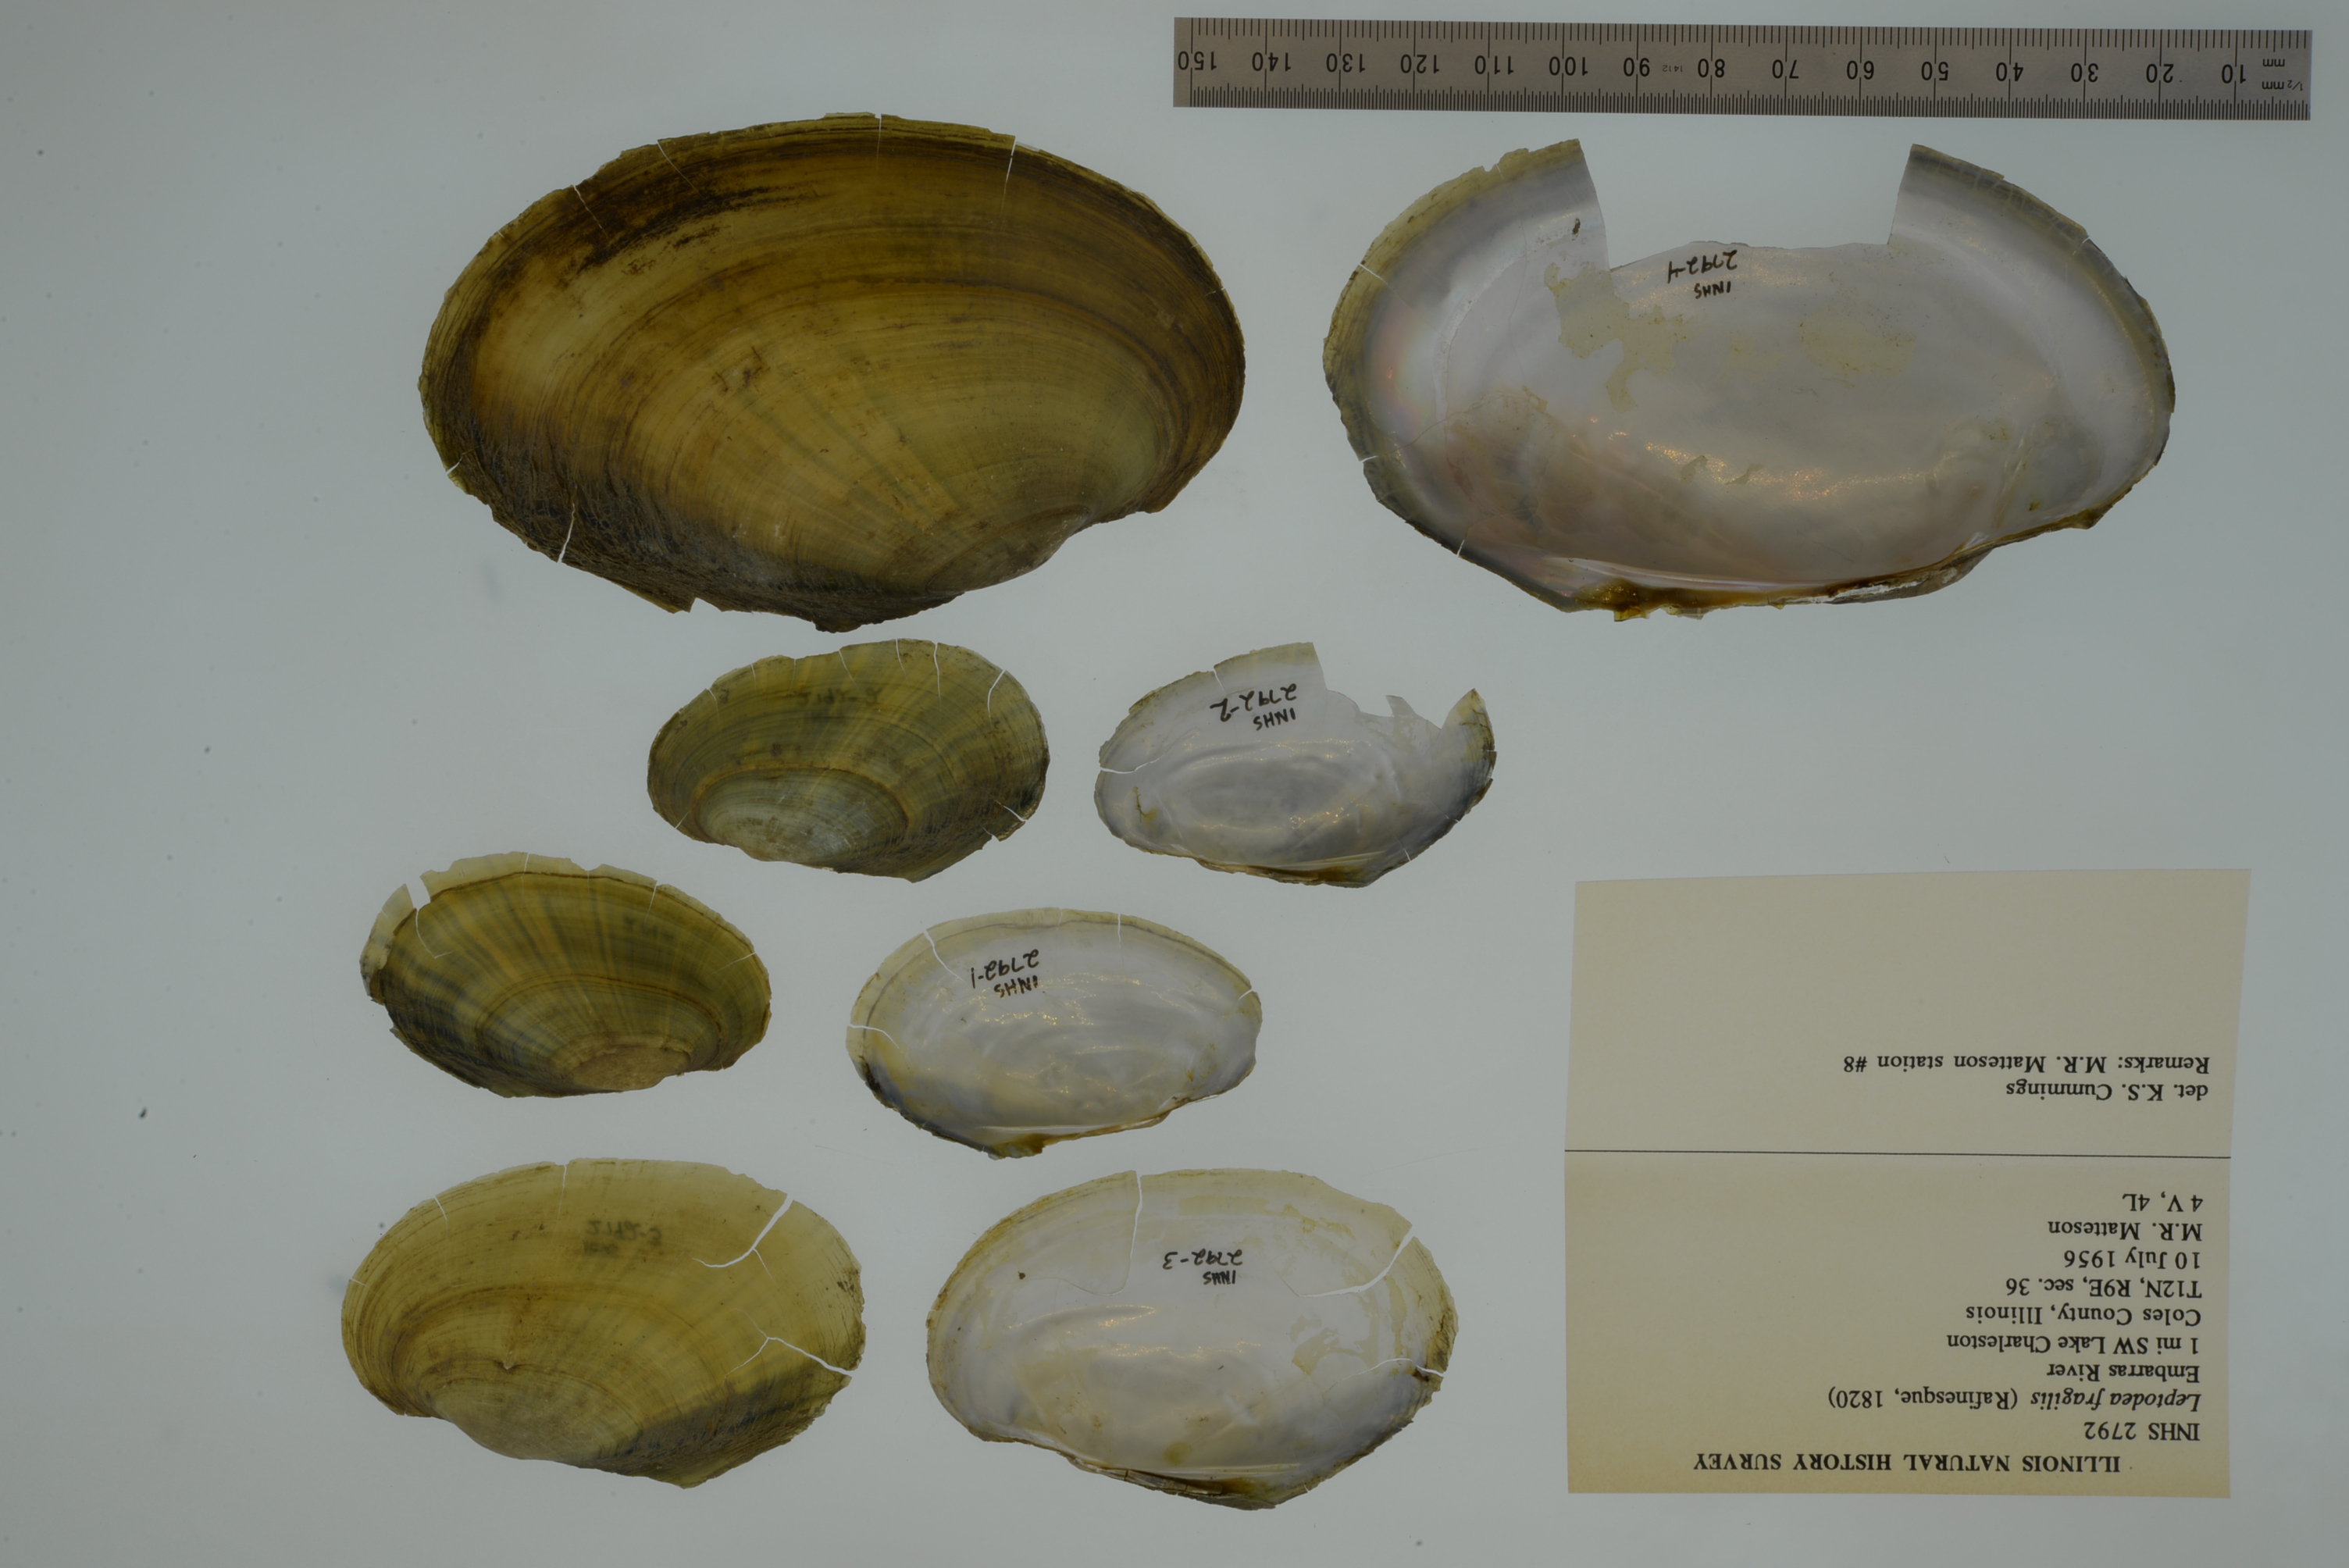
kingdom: Animalia
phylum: Mollusca
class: Bivalvia
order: Unionida
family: Unionidae
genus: Potamilus
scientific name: Potamilus fragilis
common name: Fragile papershell
